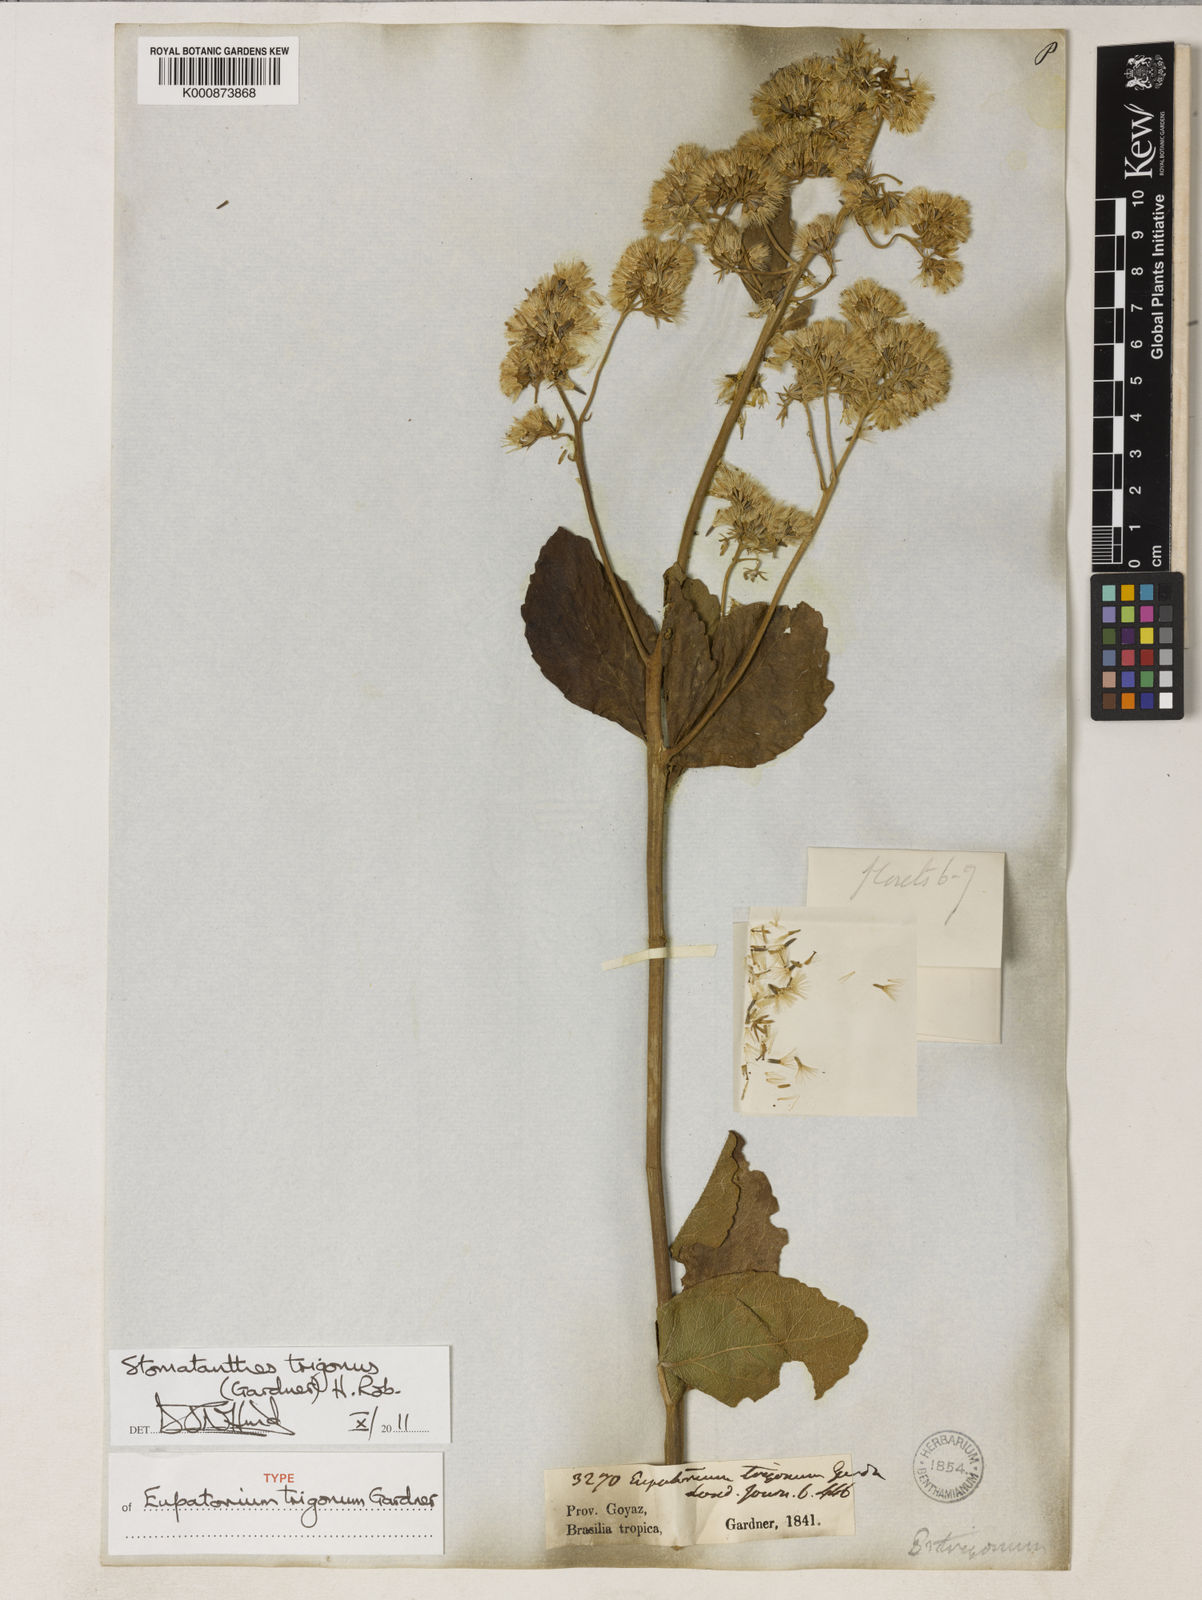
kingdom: Plantae
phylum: Tracheophyta
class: Magnoliopsida
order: Asterales
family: Asteraceae
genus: Stomatanthes
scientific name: Stomatanthes trigonus
